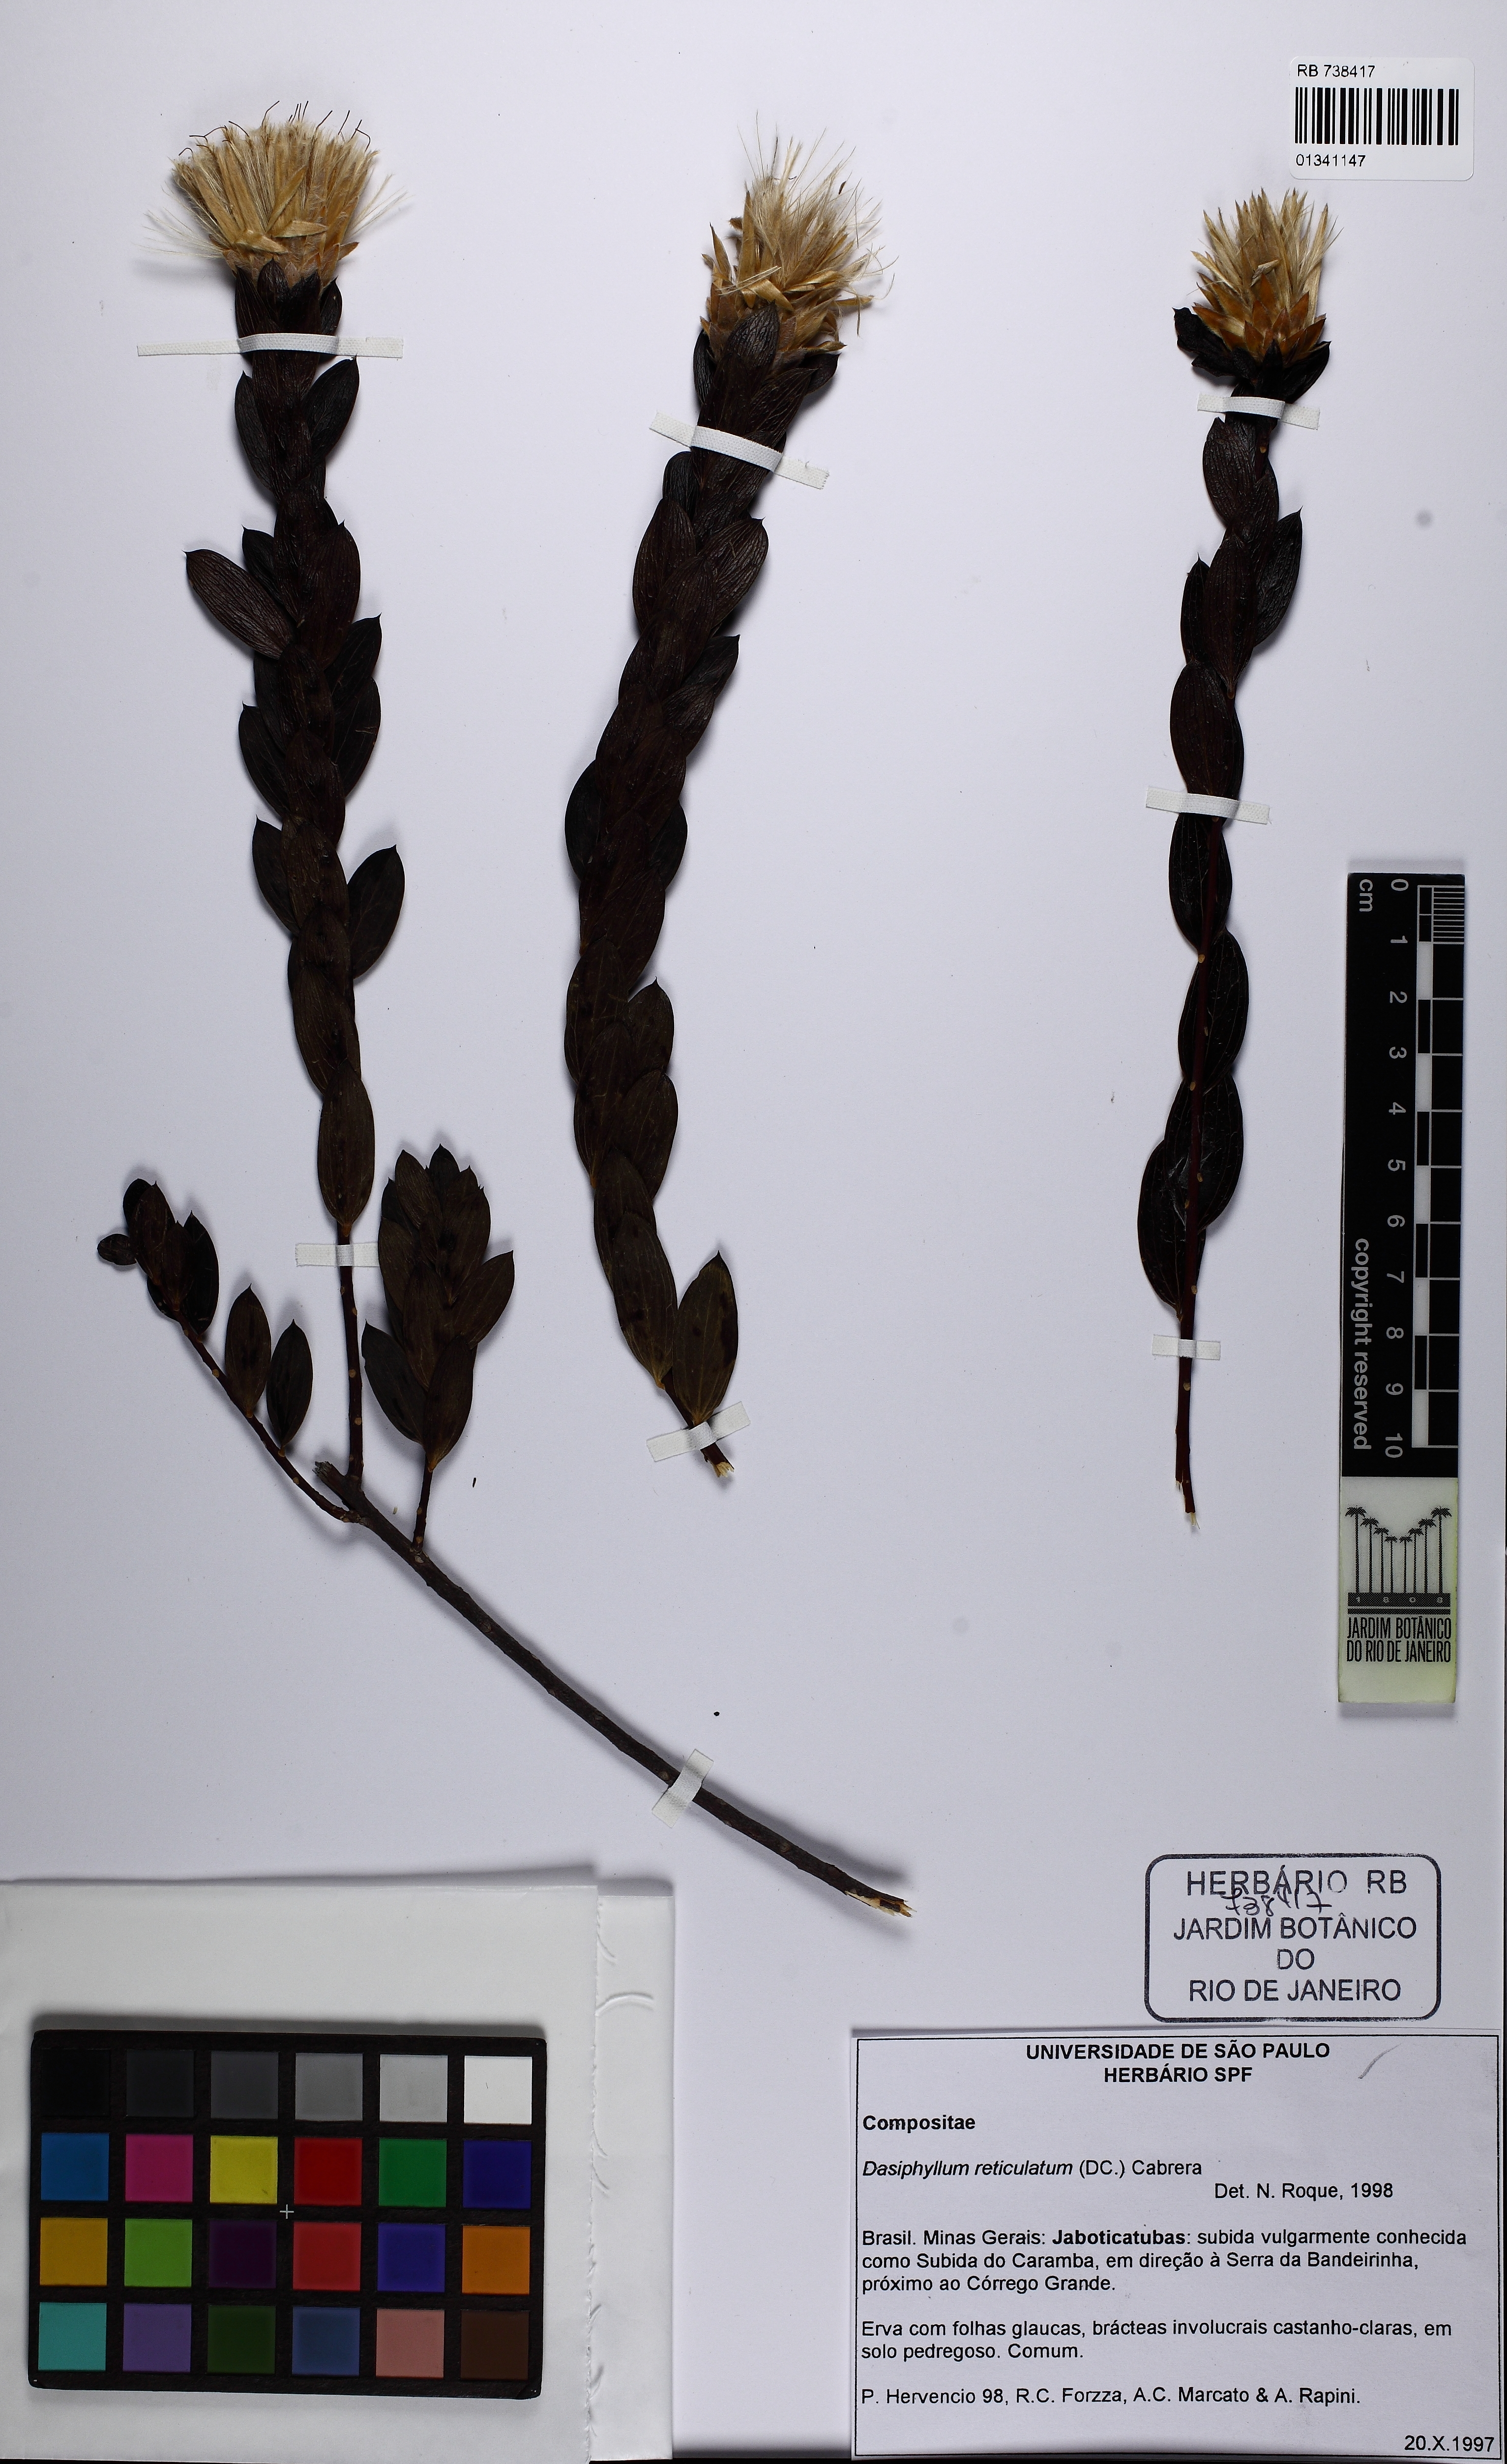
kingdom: Plantae
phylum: Tracheophyta
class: Magnoliopsida
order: Asterales
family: Asteraceae
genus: Dasyphyllum
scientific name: Dasyphyllum reticulatum
